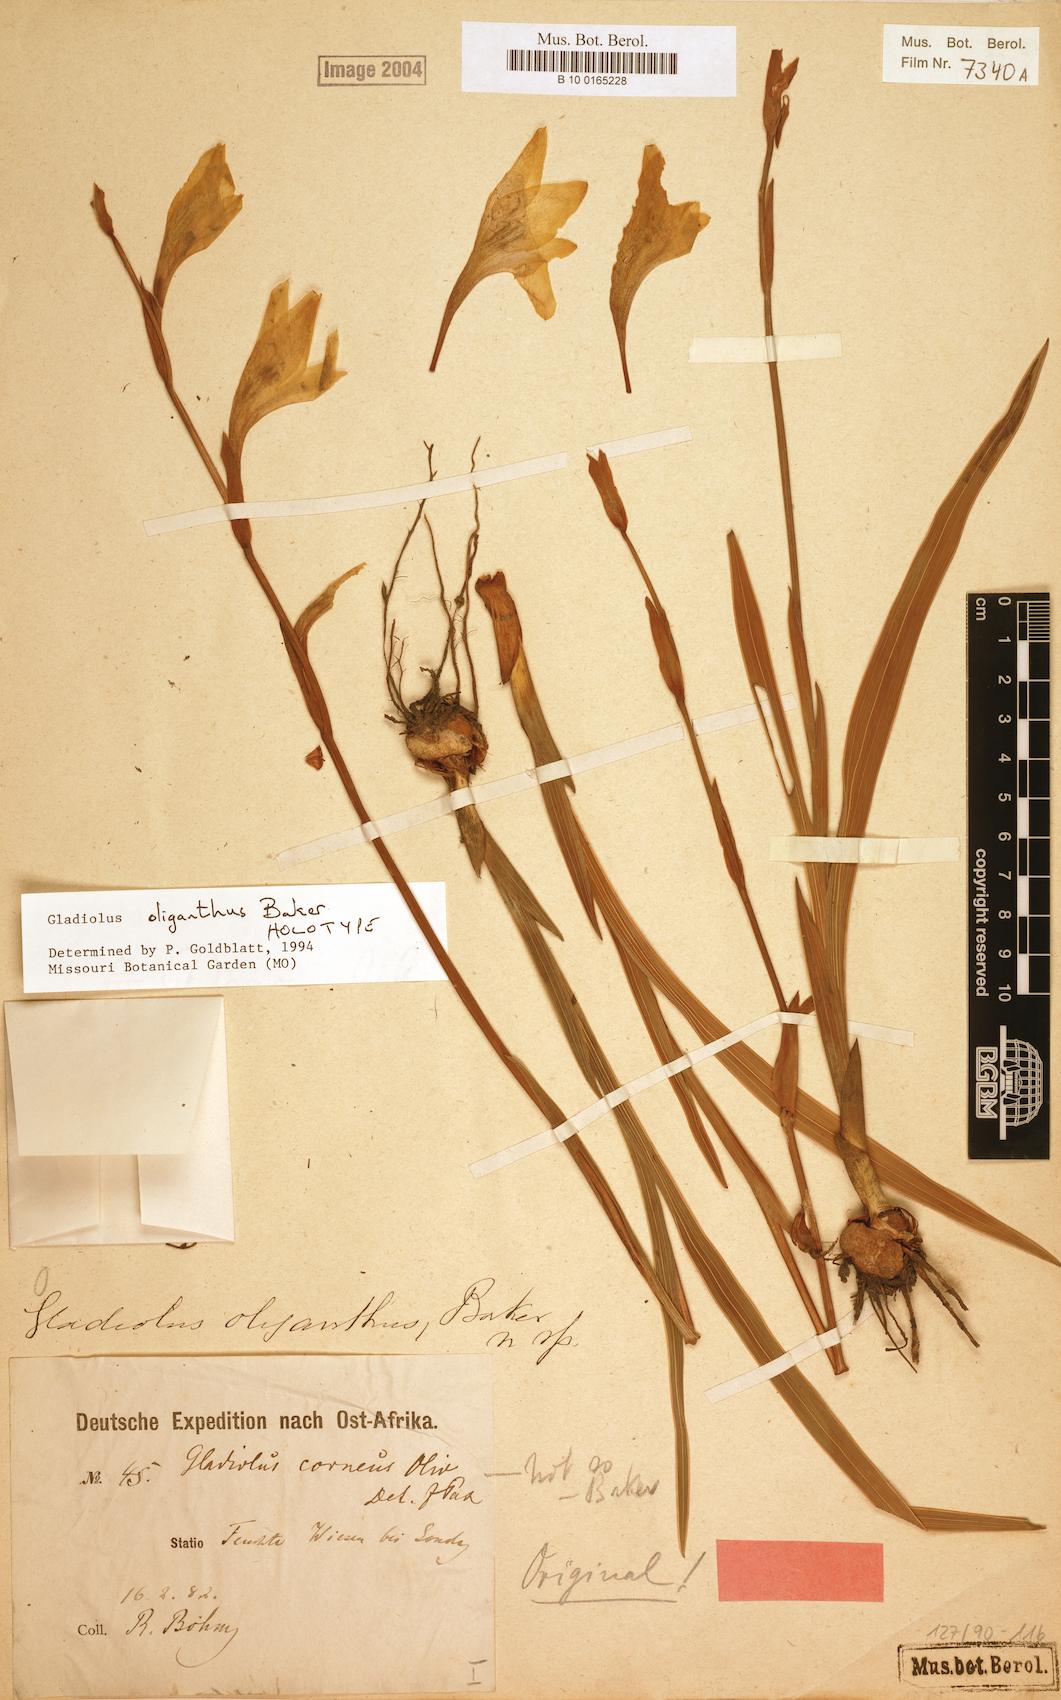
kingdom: Plantae
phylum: Tracheophyta
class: Liliopsida
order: Asparagales
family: Iridaceae
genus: Gladiolus
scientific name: Gladiolus oliganthus
